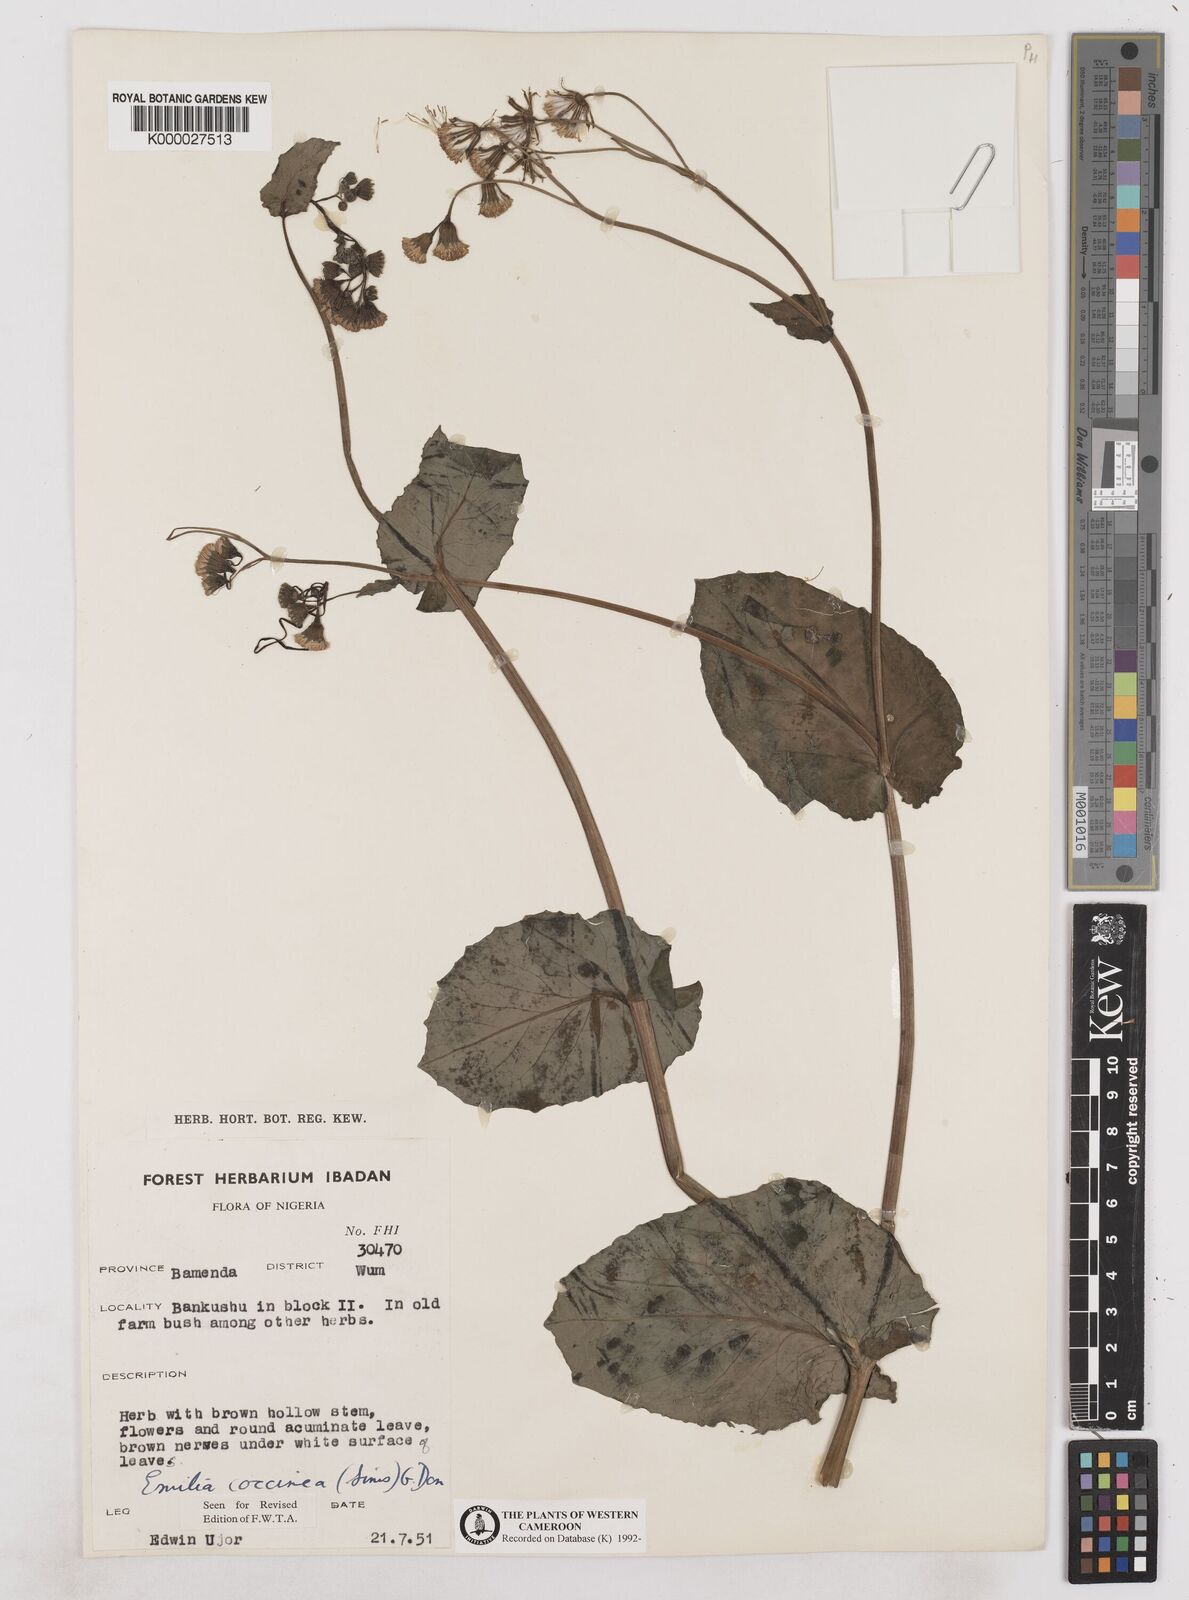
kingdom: Plantae
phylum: Tracheophyta
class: Magnoliopsida
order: Asterales
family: Asteraceae
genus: Emilia
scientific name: Emilia lisowskiana
